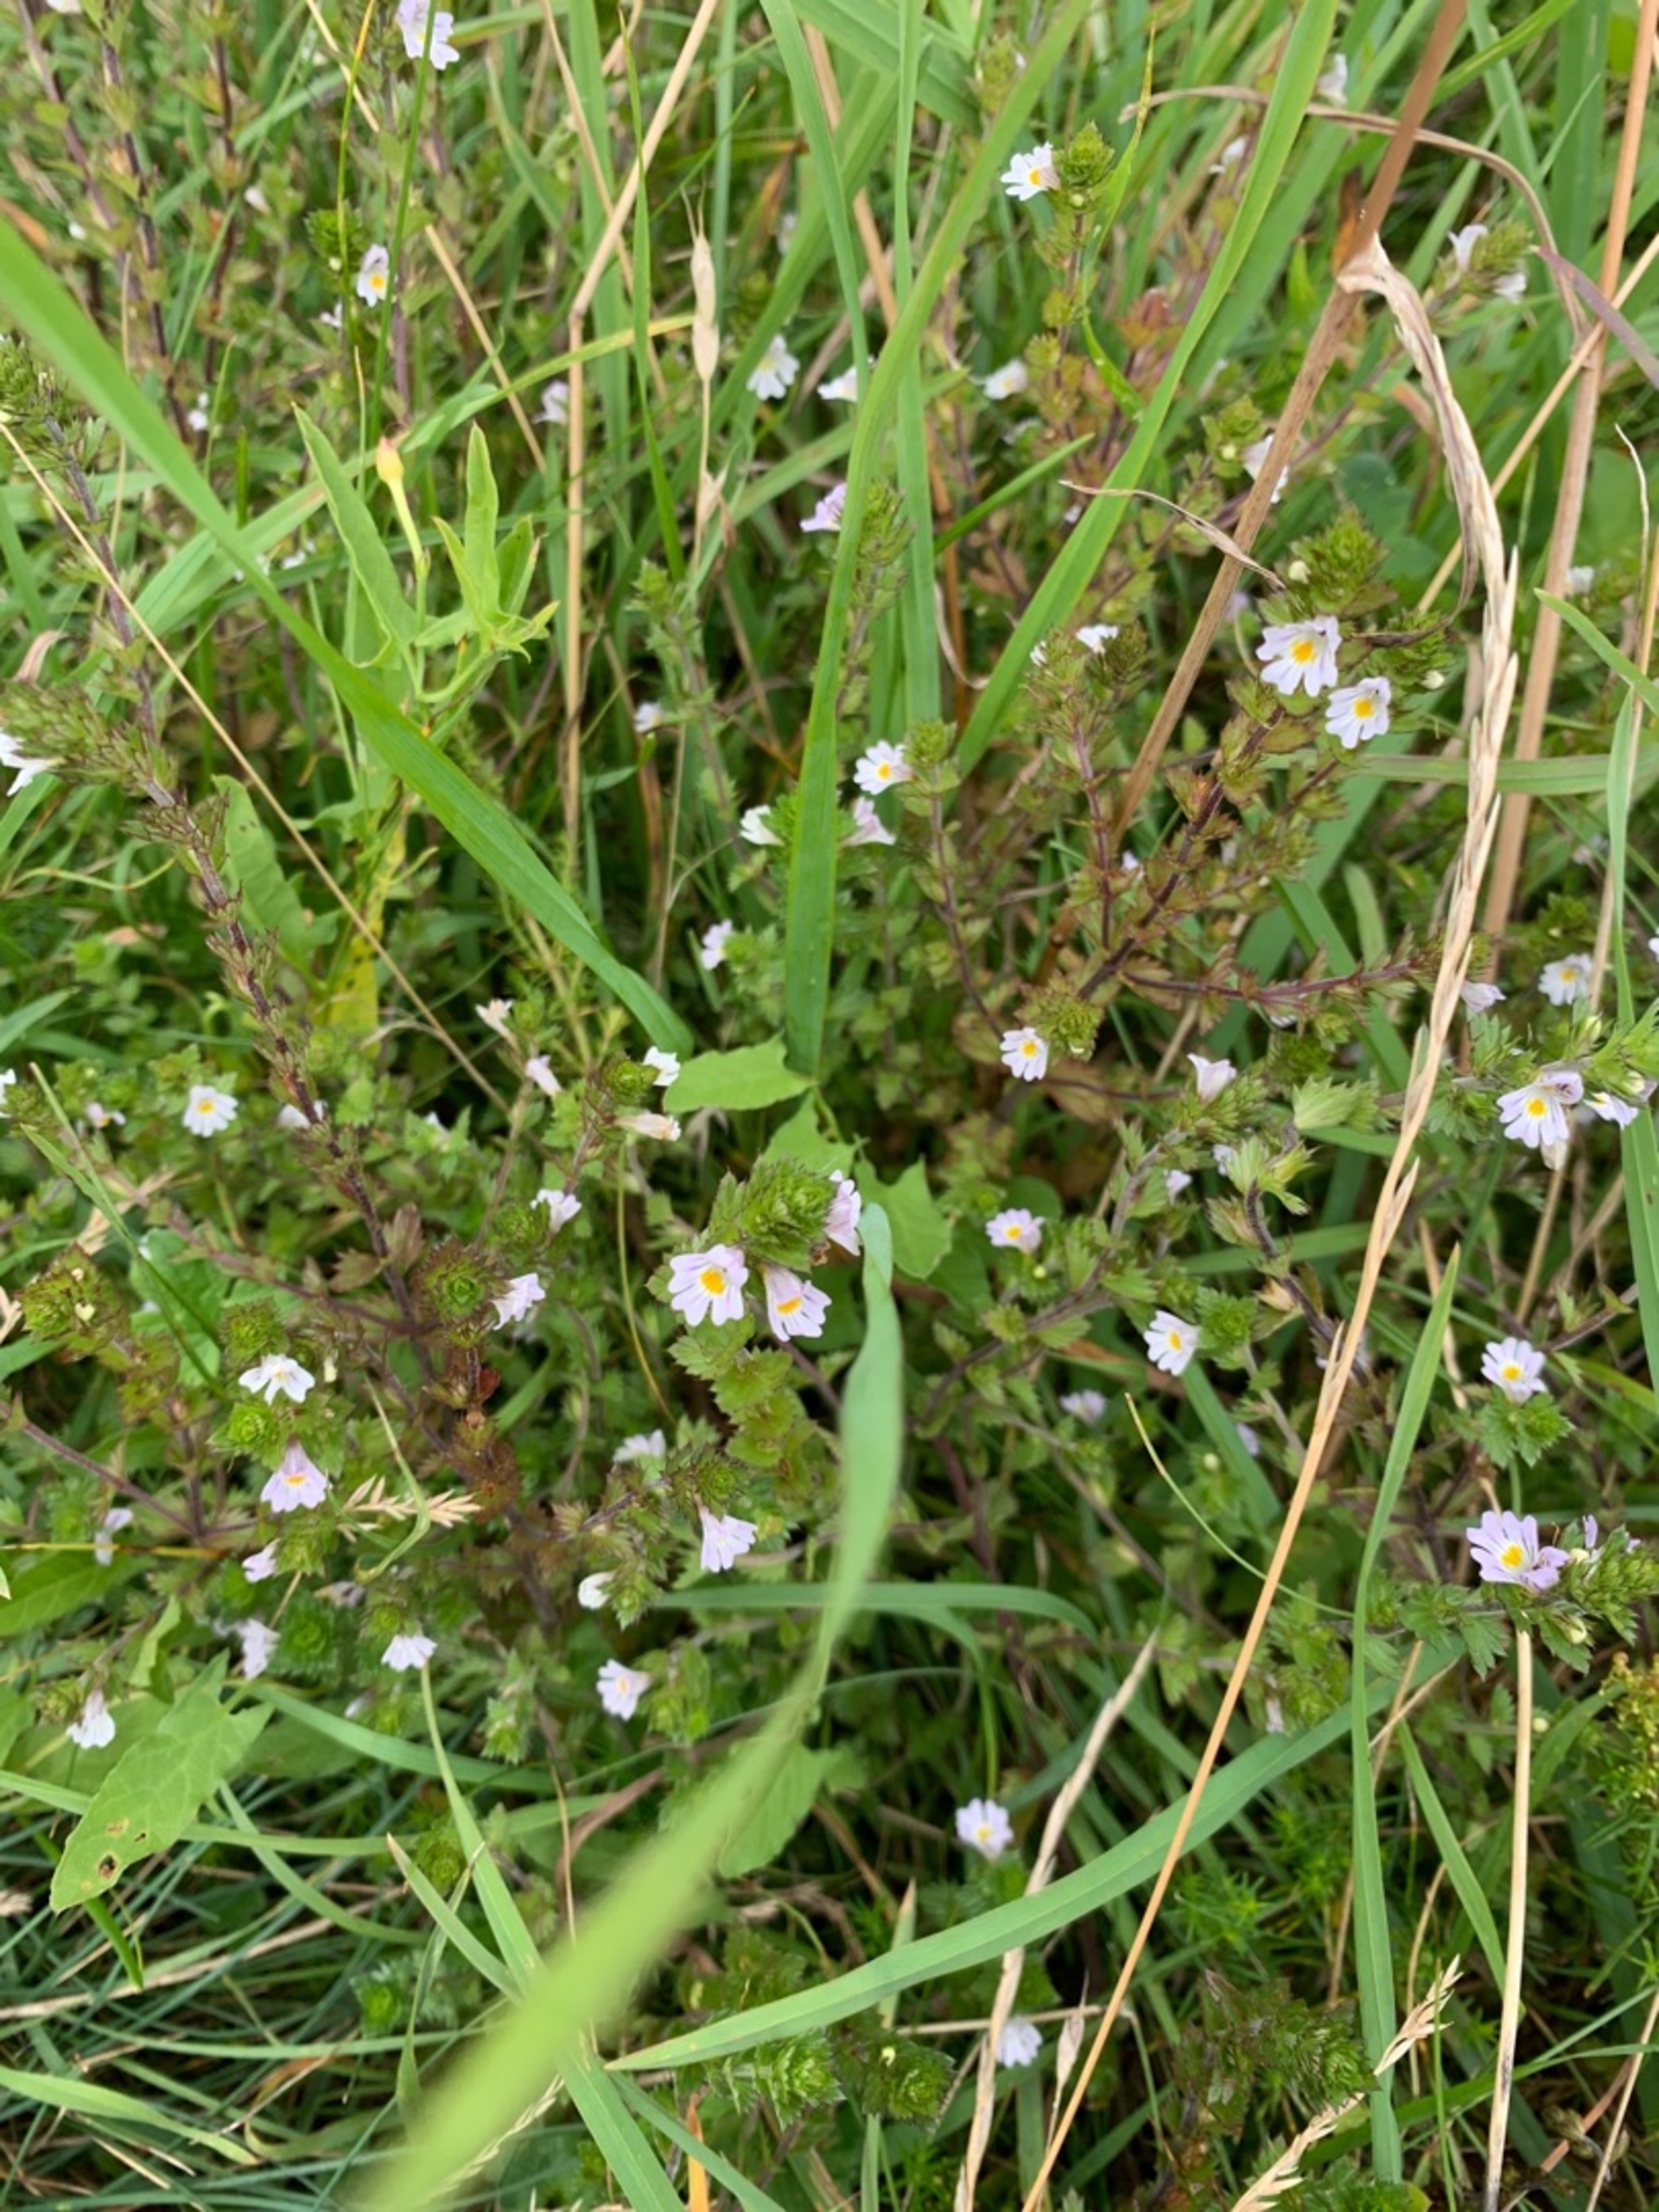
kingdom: Plantae
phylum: Tracheophyta
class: Magnoliopsida
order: Lamiales
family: Orobanchaceae
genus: Euphrasia
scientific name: Euphrasia vernalis
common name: Kirtel-øjentrøst
